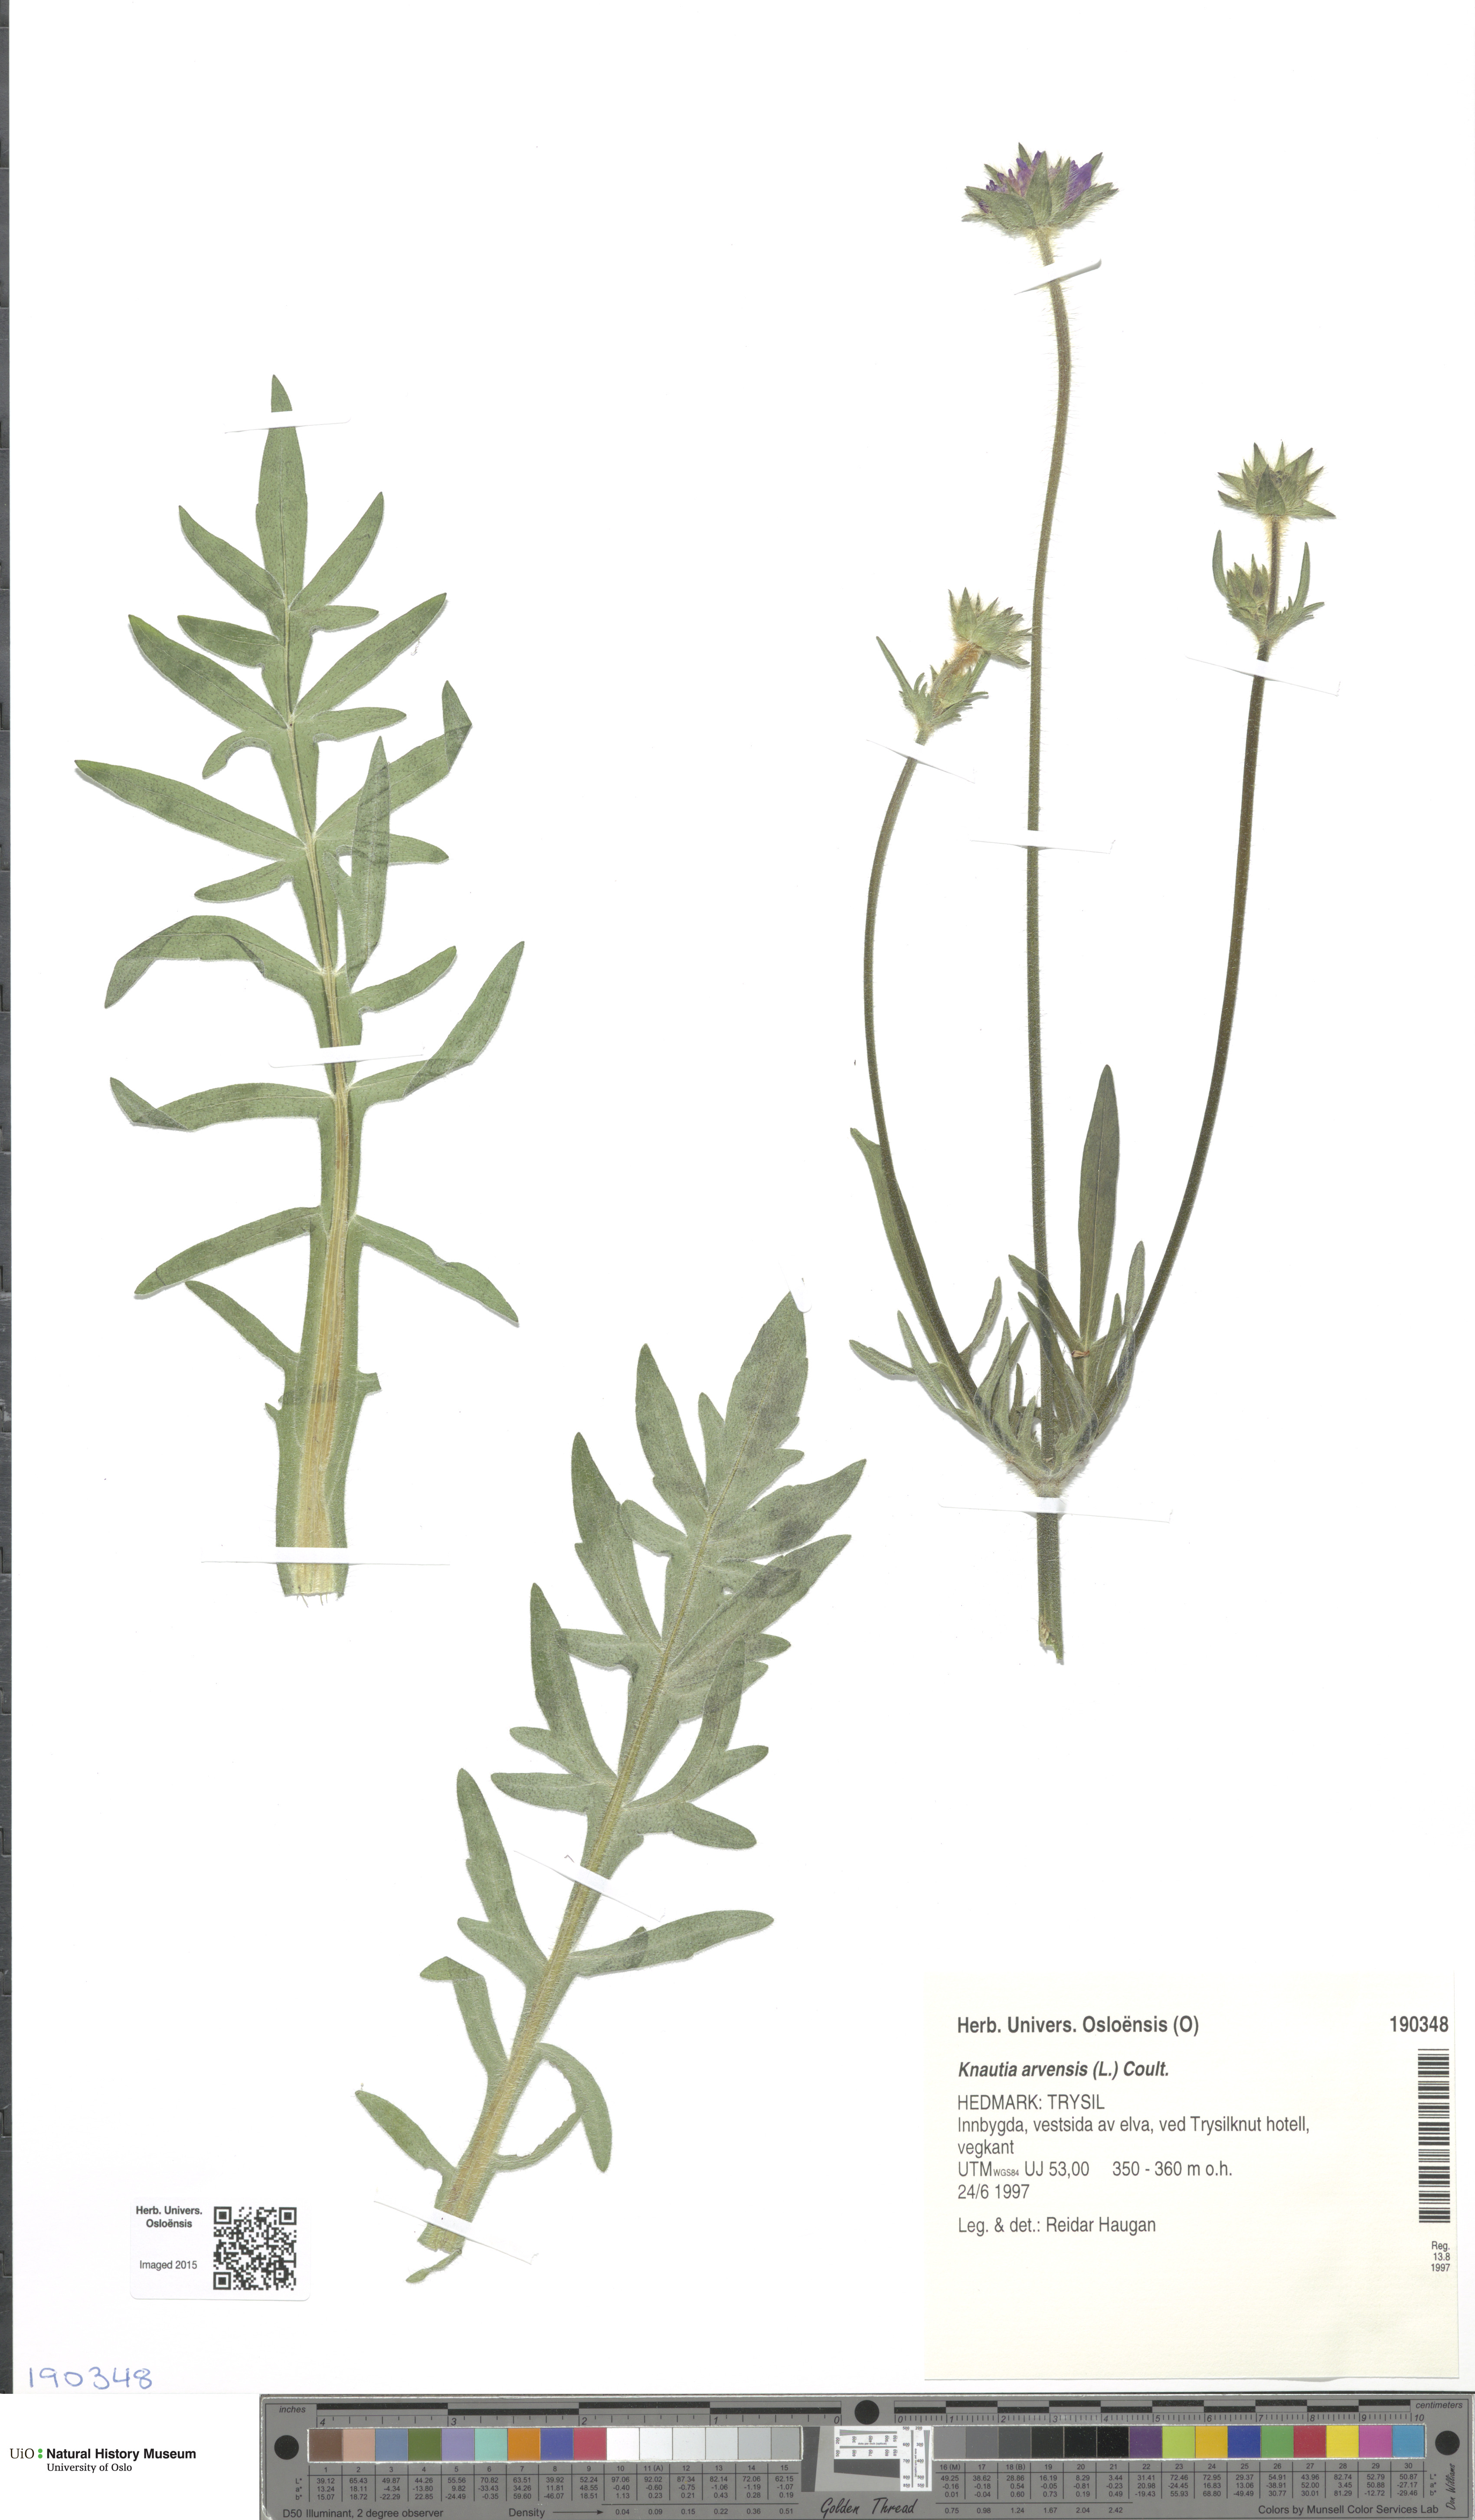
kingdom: Plantae
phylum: Tracheophyta
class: Magnoliopsida
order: Dipsacales
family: Caprifoliaceae
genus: Knautia
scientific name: Knautia arvensis
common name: Field scabiosa
